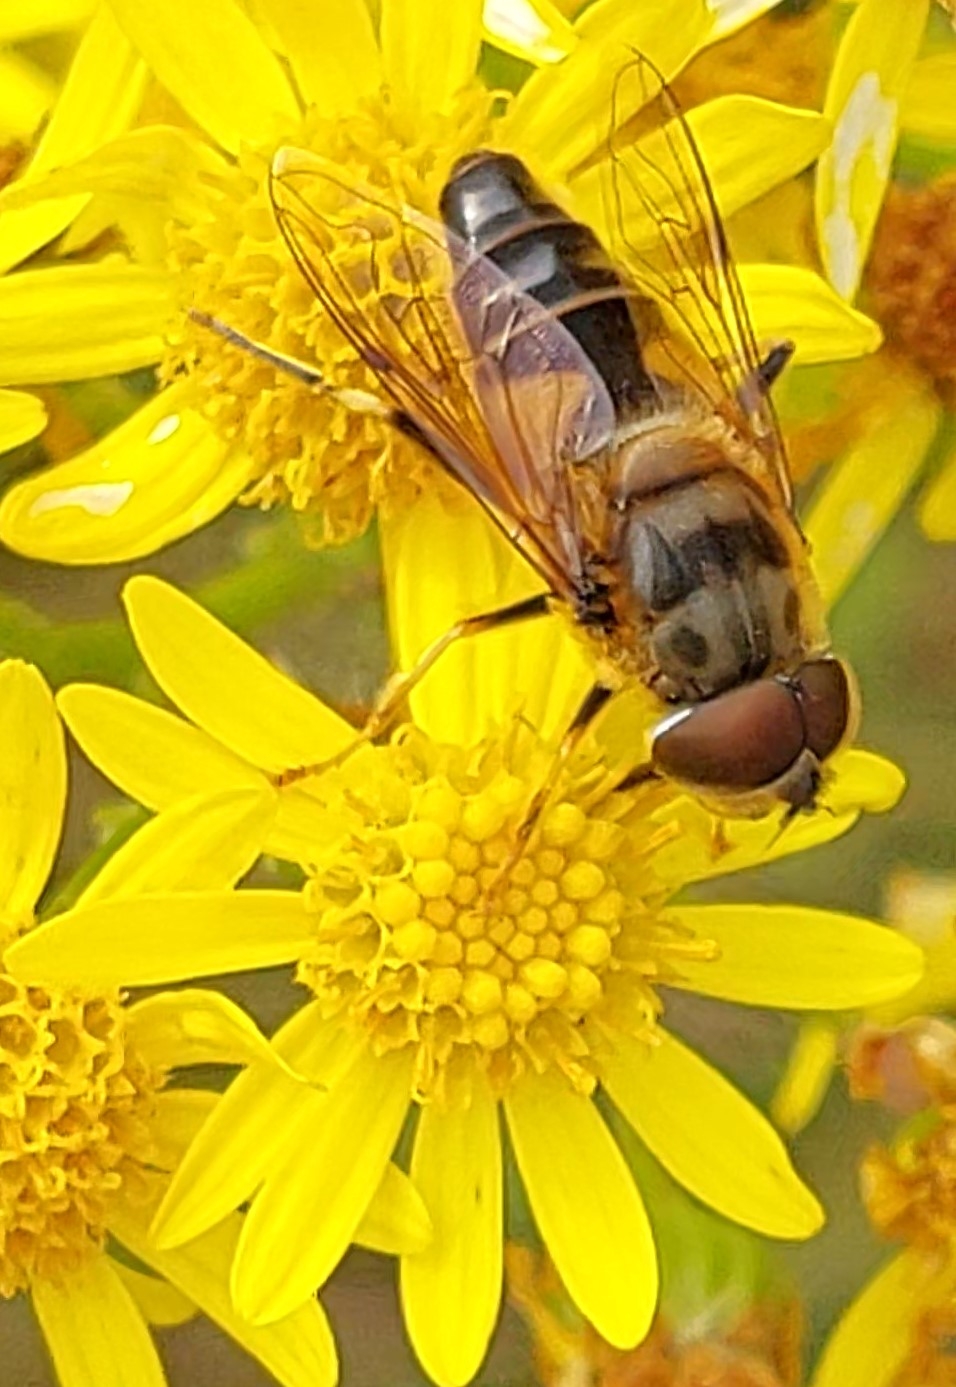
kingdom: Animalia
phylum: Arthropoda
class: Insecta
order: Diptera
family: Syrphidae
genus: Eristalis
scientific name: Eristalis pertinax
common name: Gulfodet dyndflue
